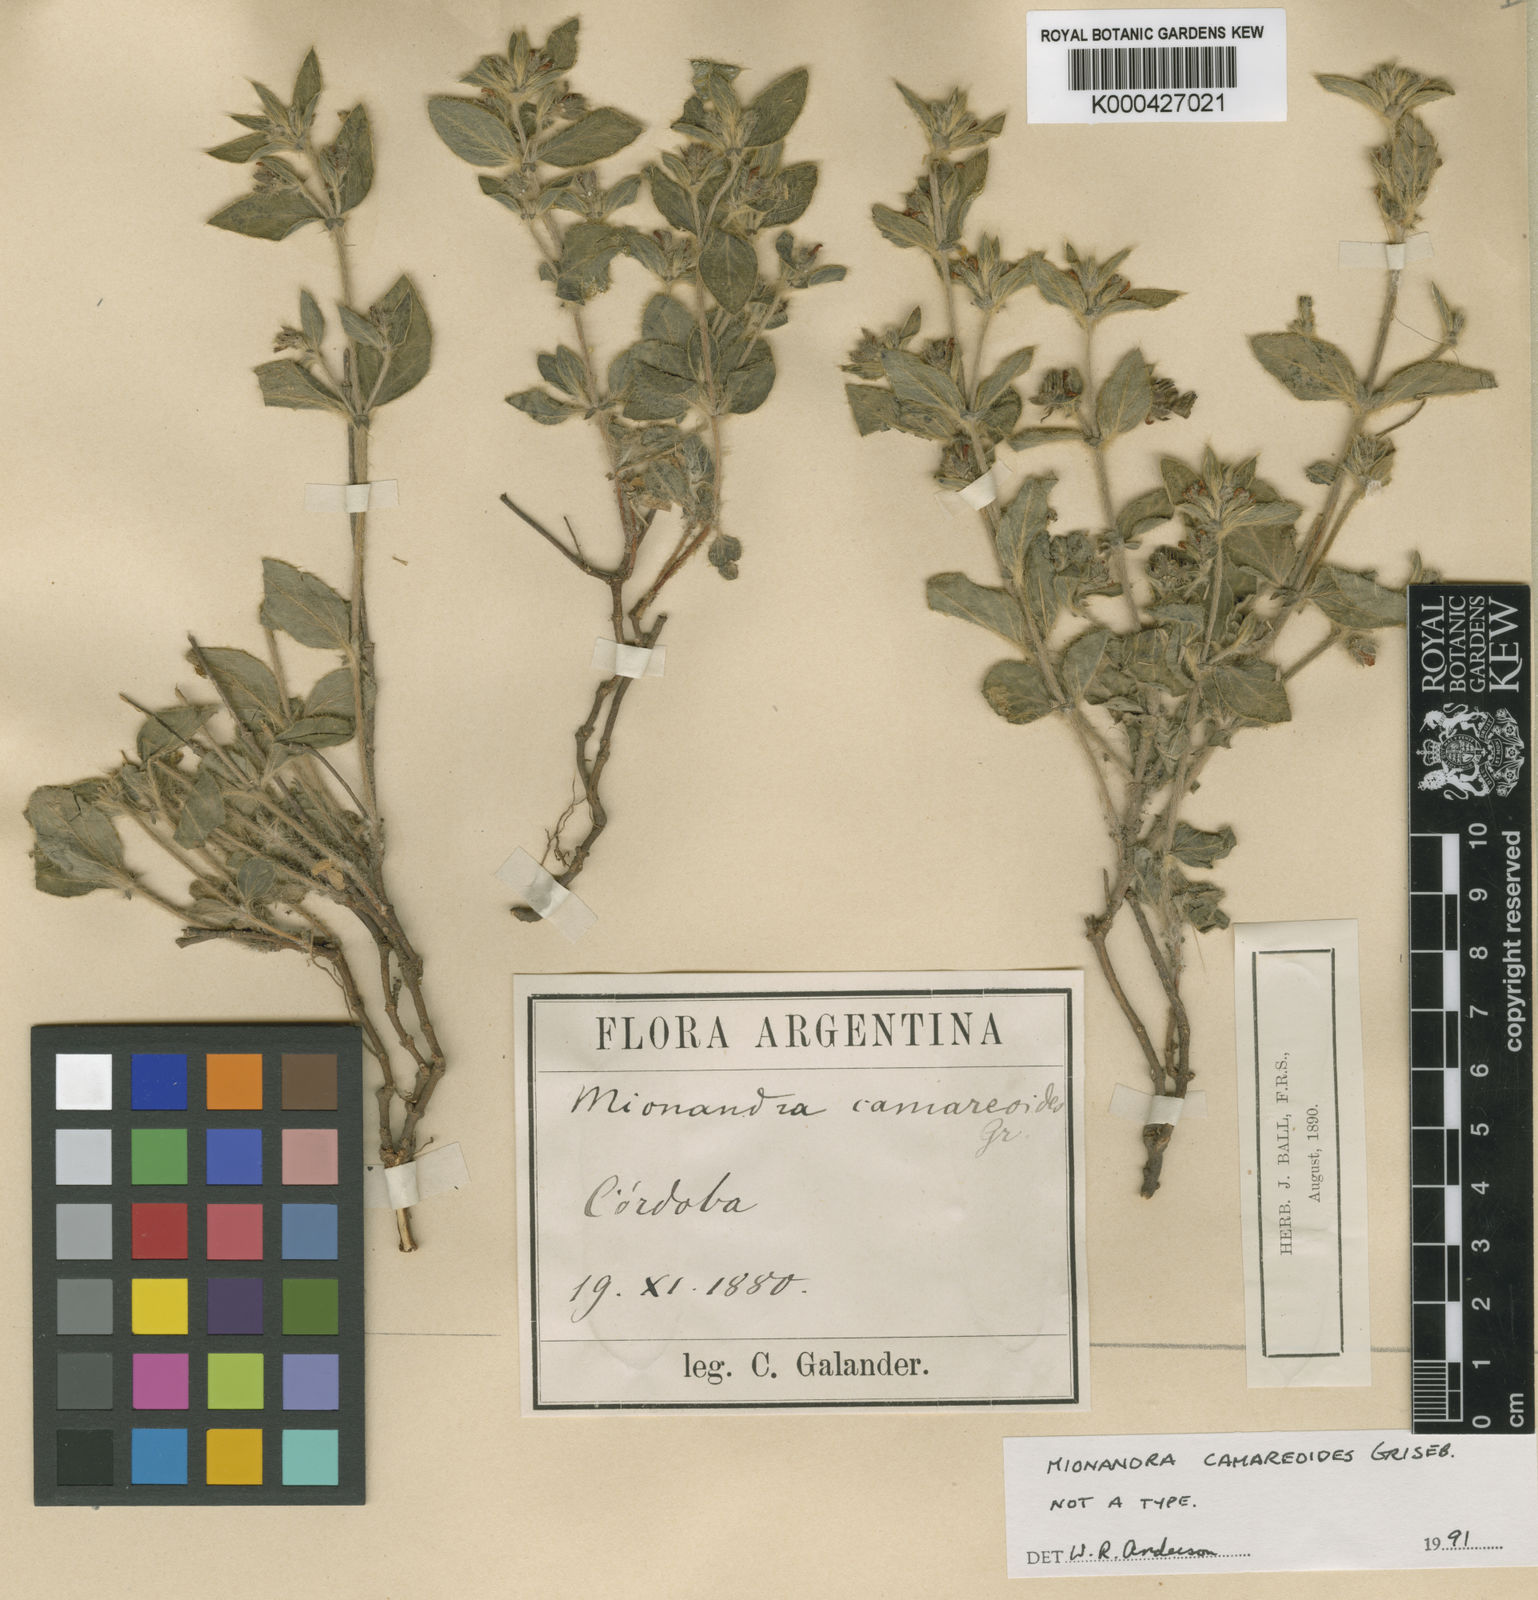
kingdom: Plantae
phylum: Tracheophyta
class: Magnoliopsida
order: Malpighiales
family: Malpighiaceae
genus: Mionandra
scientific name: Mionandra camareoides
